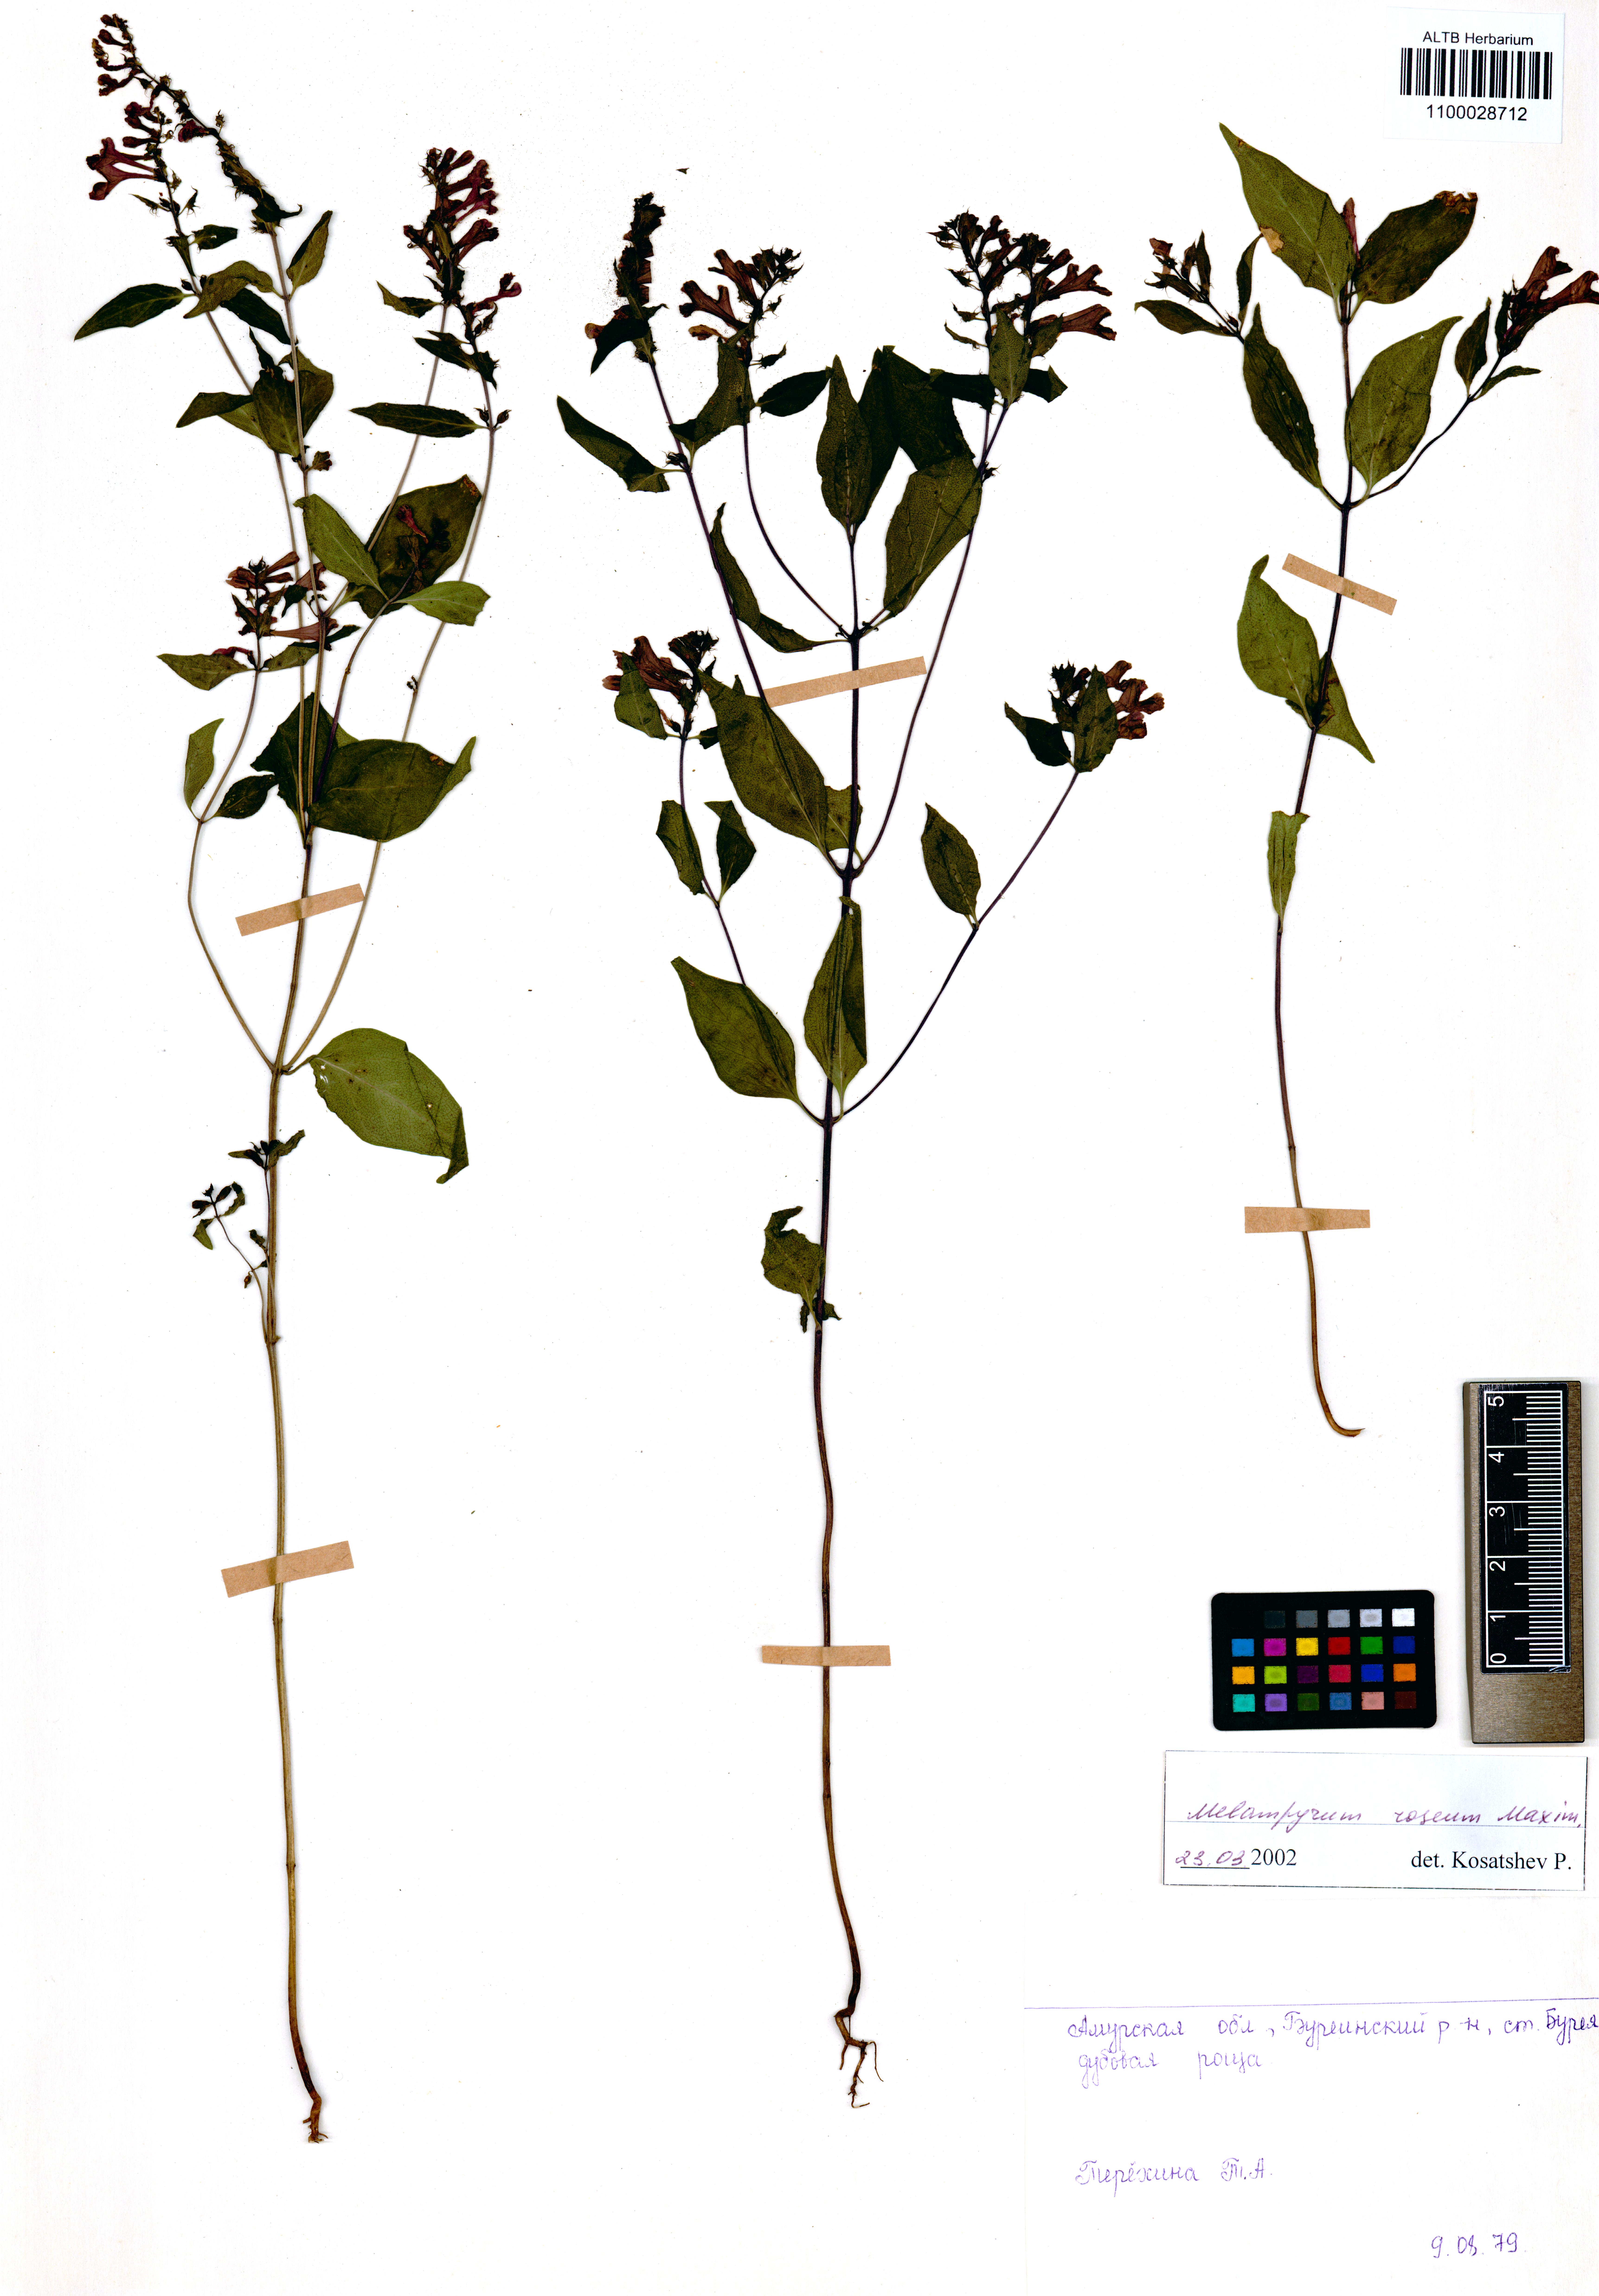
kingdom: Plantae
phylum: Tracheophyta
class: Magnoliopsida
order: Lamiales
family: Orobanchaceae
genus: Melampyrum
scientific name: Melampyrum roseum
